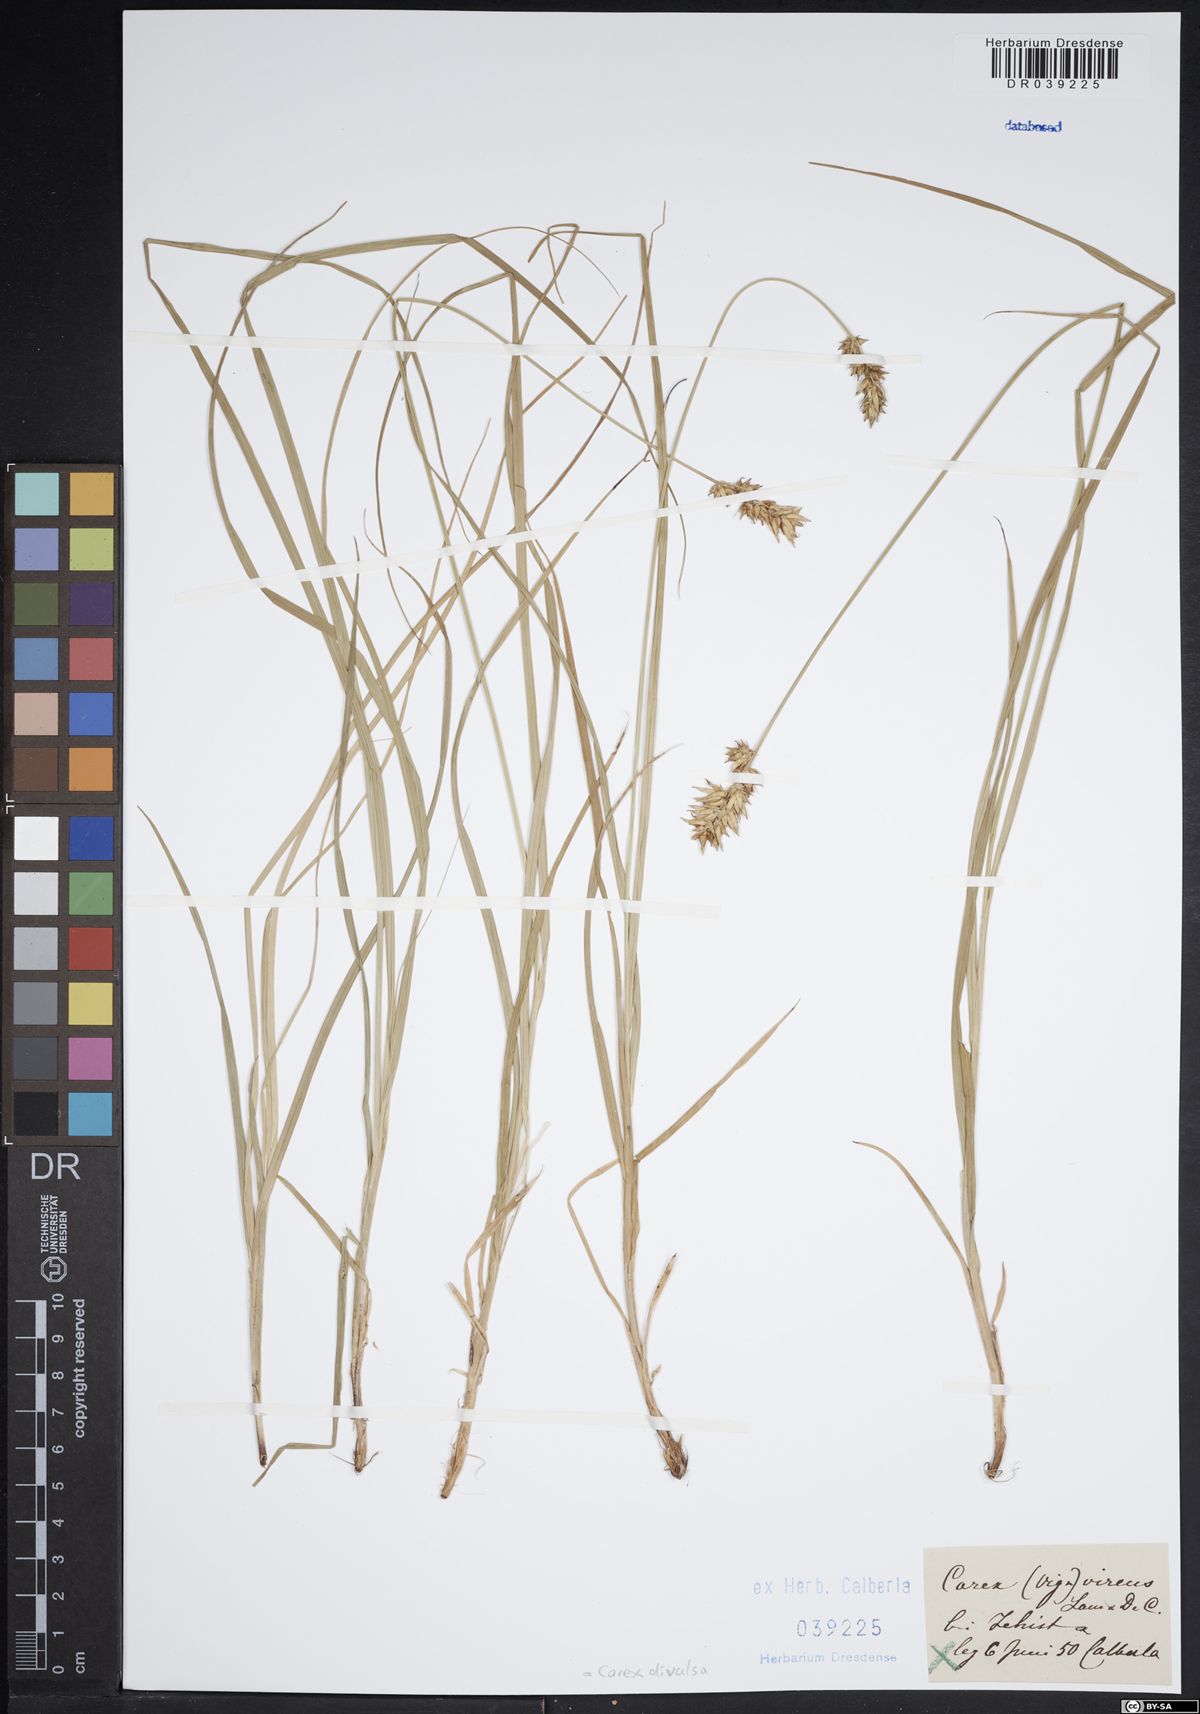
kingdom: Plantae
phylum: Tracheophyta
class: Liliopsida
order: Poales
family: Cyperaceae
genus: Carex
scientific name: Carex divulsa
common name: Grassland sedge
